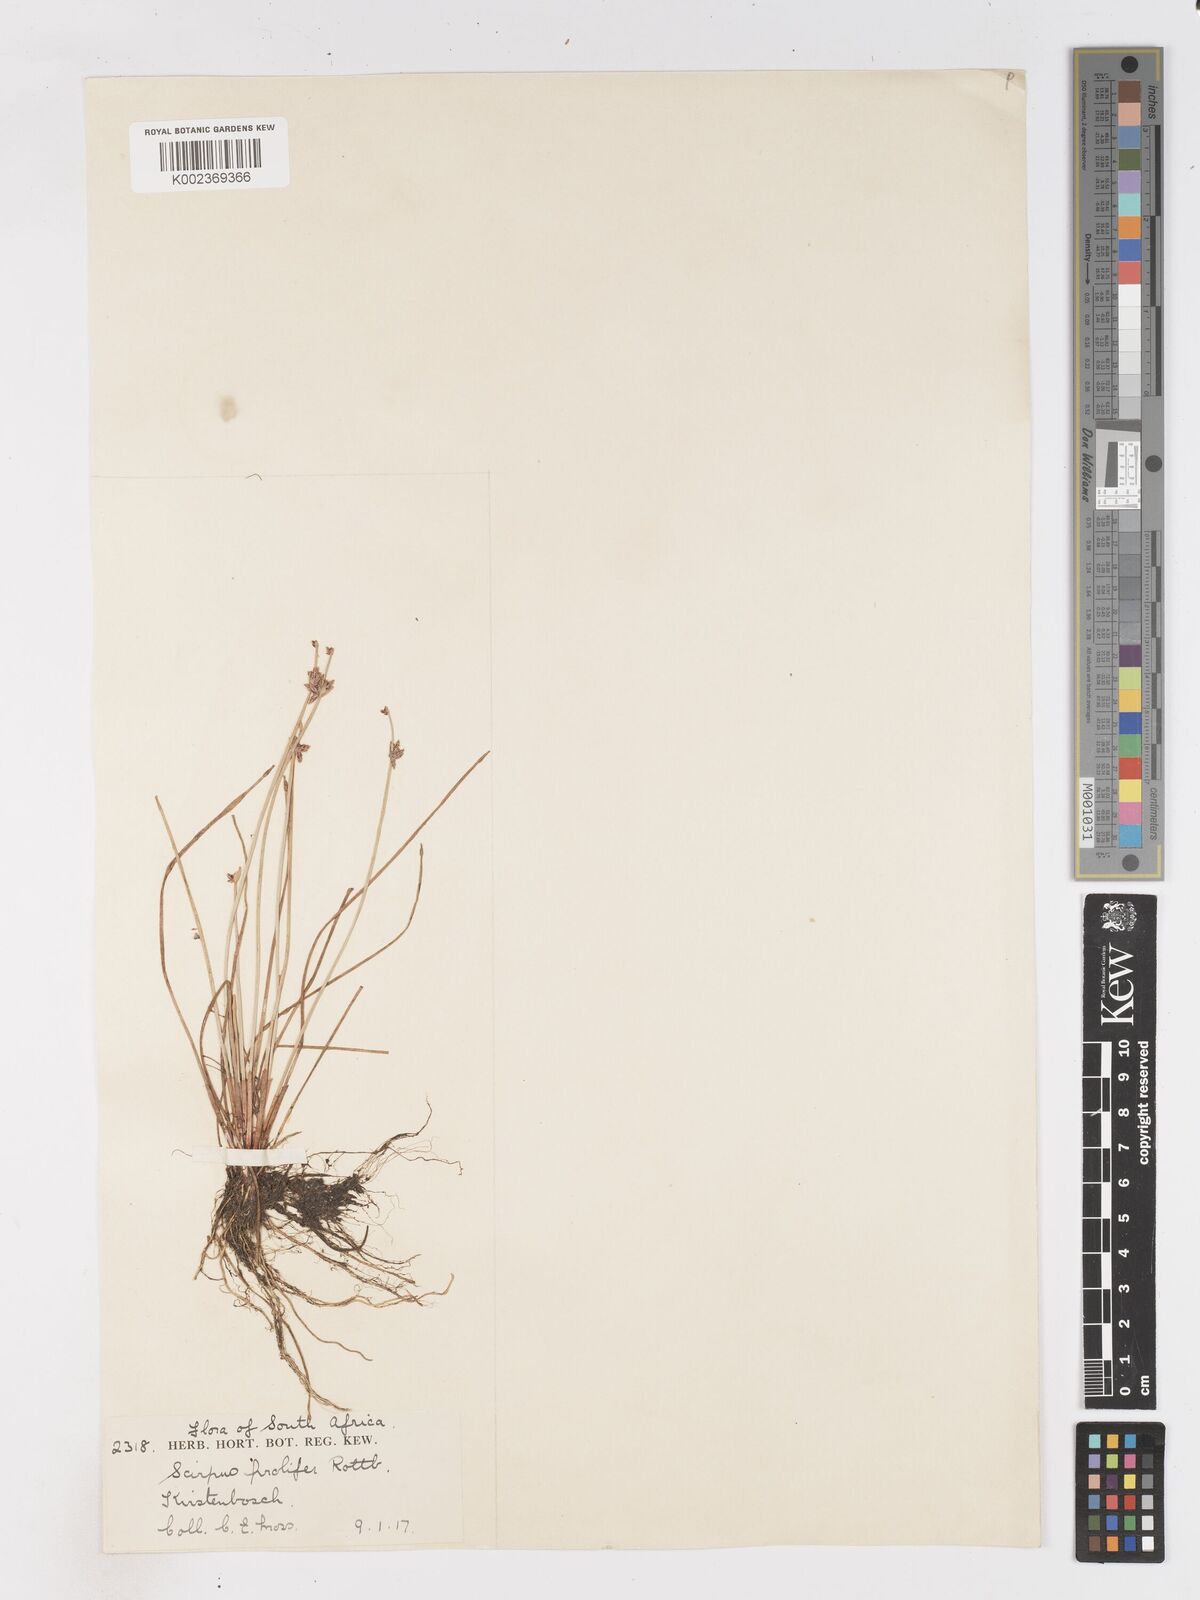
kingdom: Plantae
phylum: Tracheophyta
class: Liliopsida
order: Poales
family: Cyperaceae
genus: Isolepis
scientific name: Isolepis prolifera
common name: Proliferating bulrush
